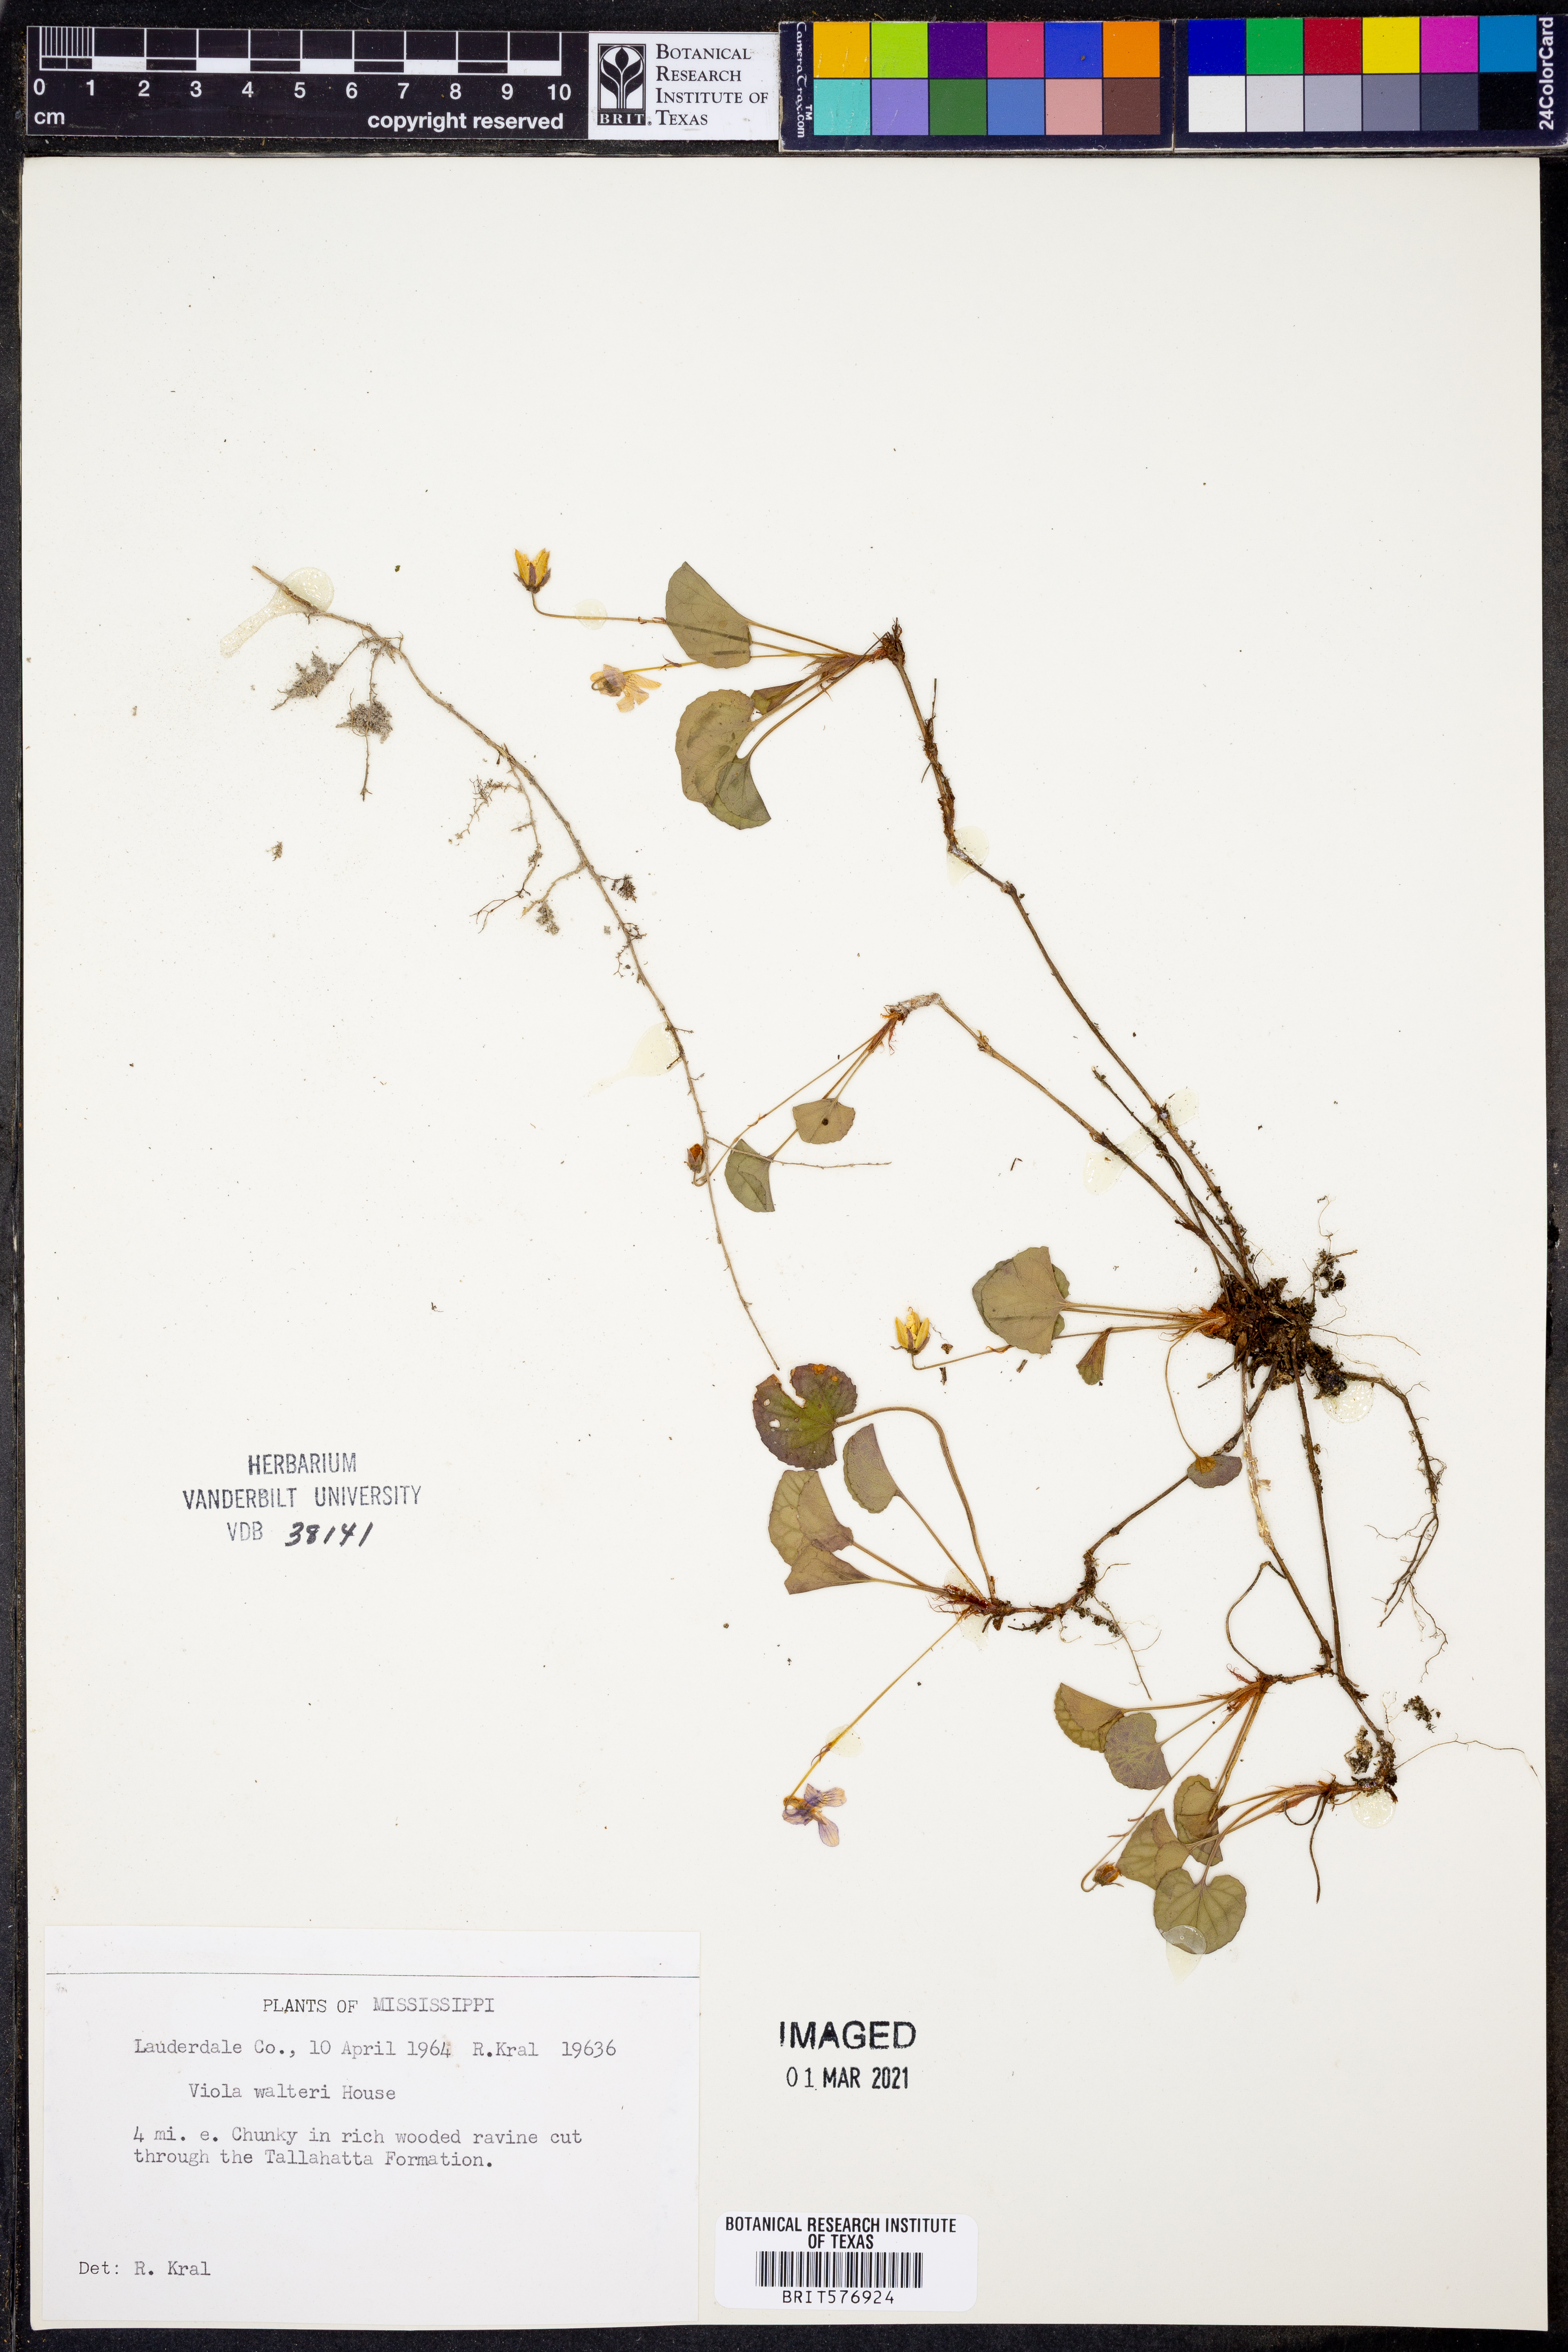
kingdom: Plantae
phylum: Tracheophyta
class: Magnoliopsida
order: Malpighiales
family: Violaceae
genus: Viola
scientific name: Viola walteri
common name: Prostrate southern violet
